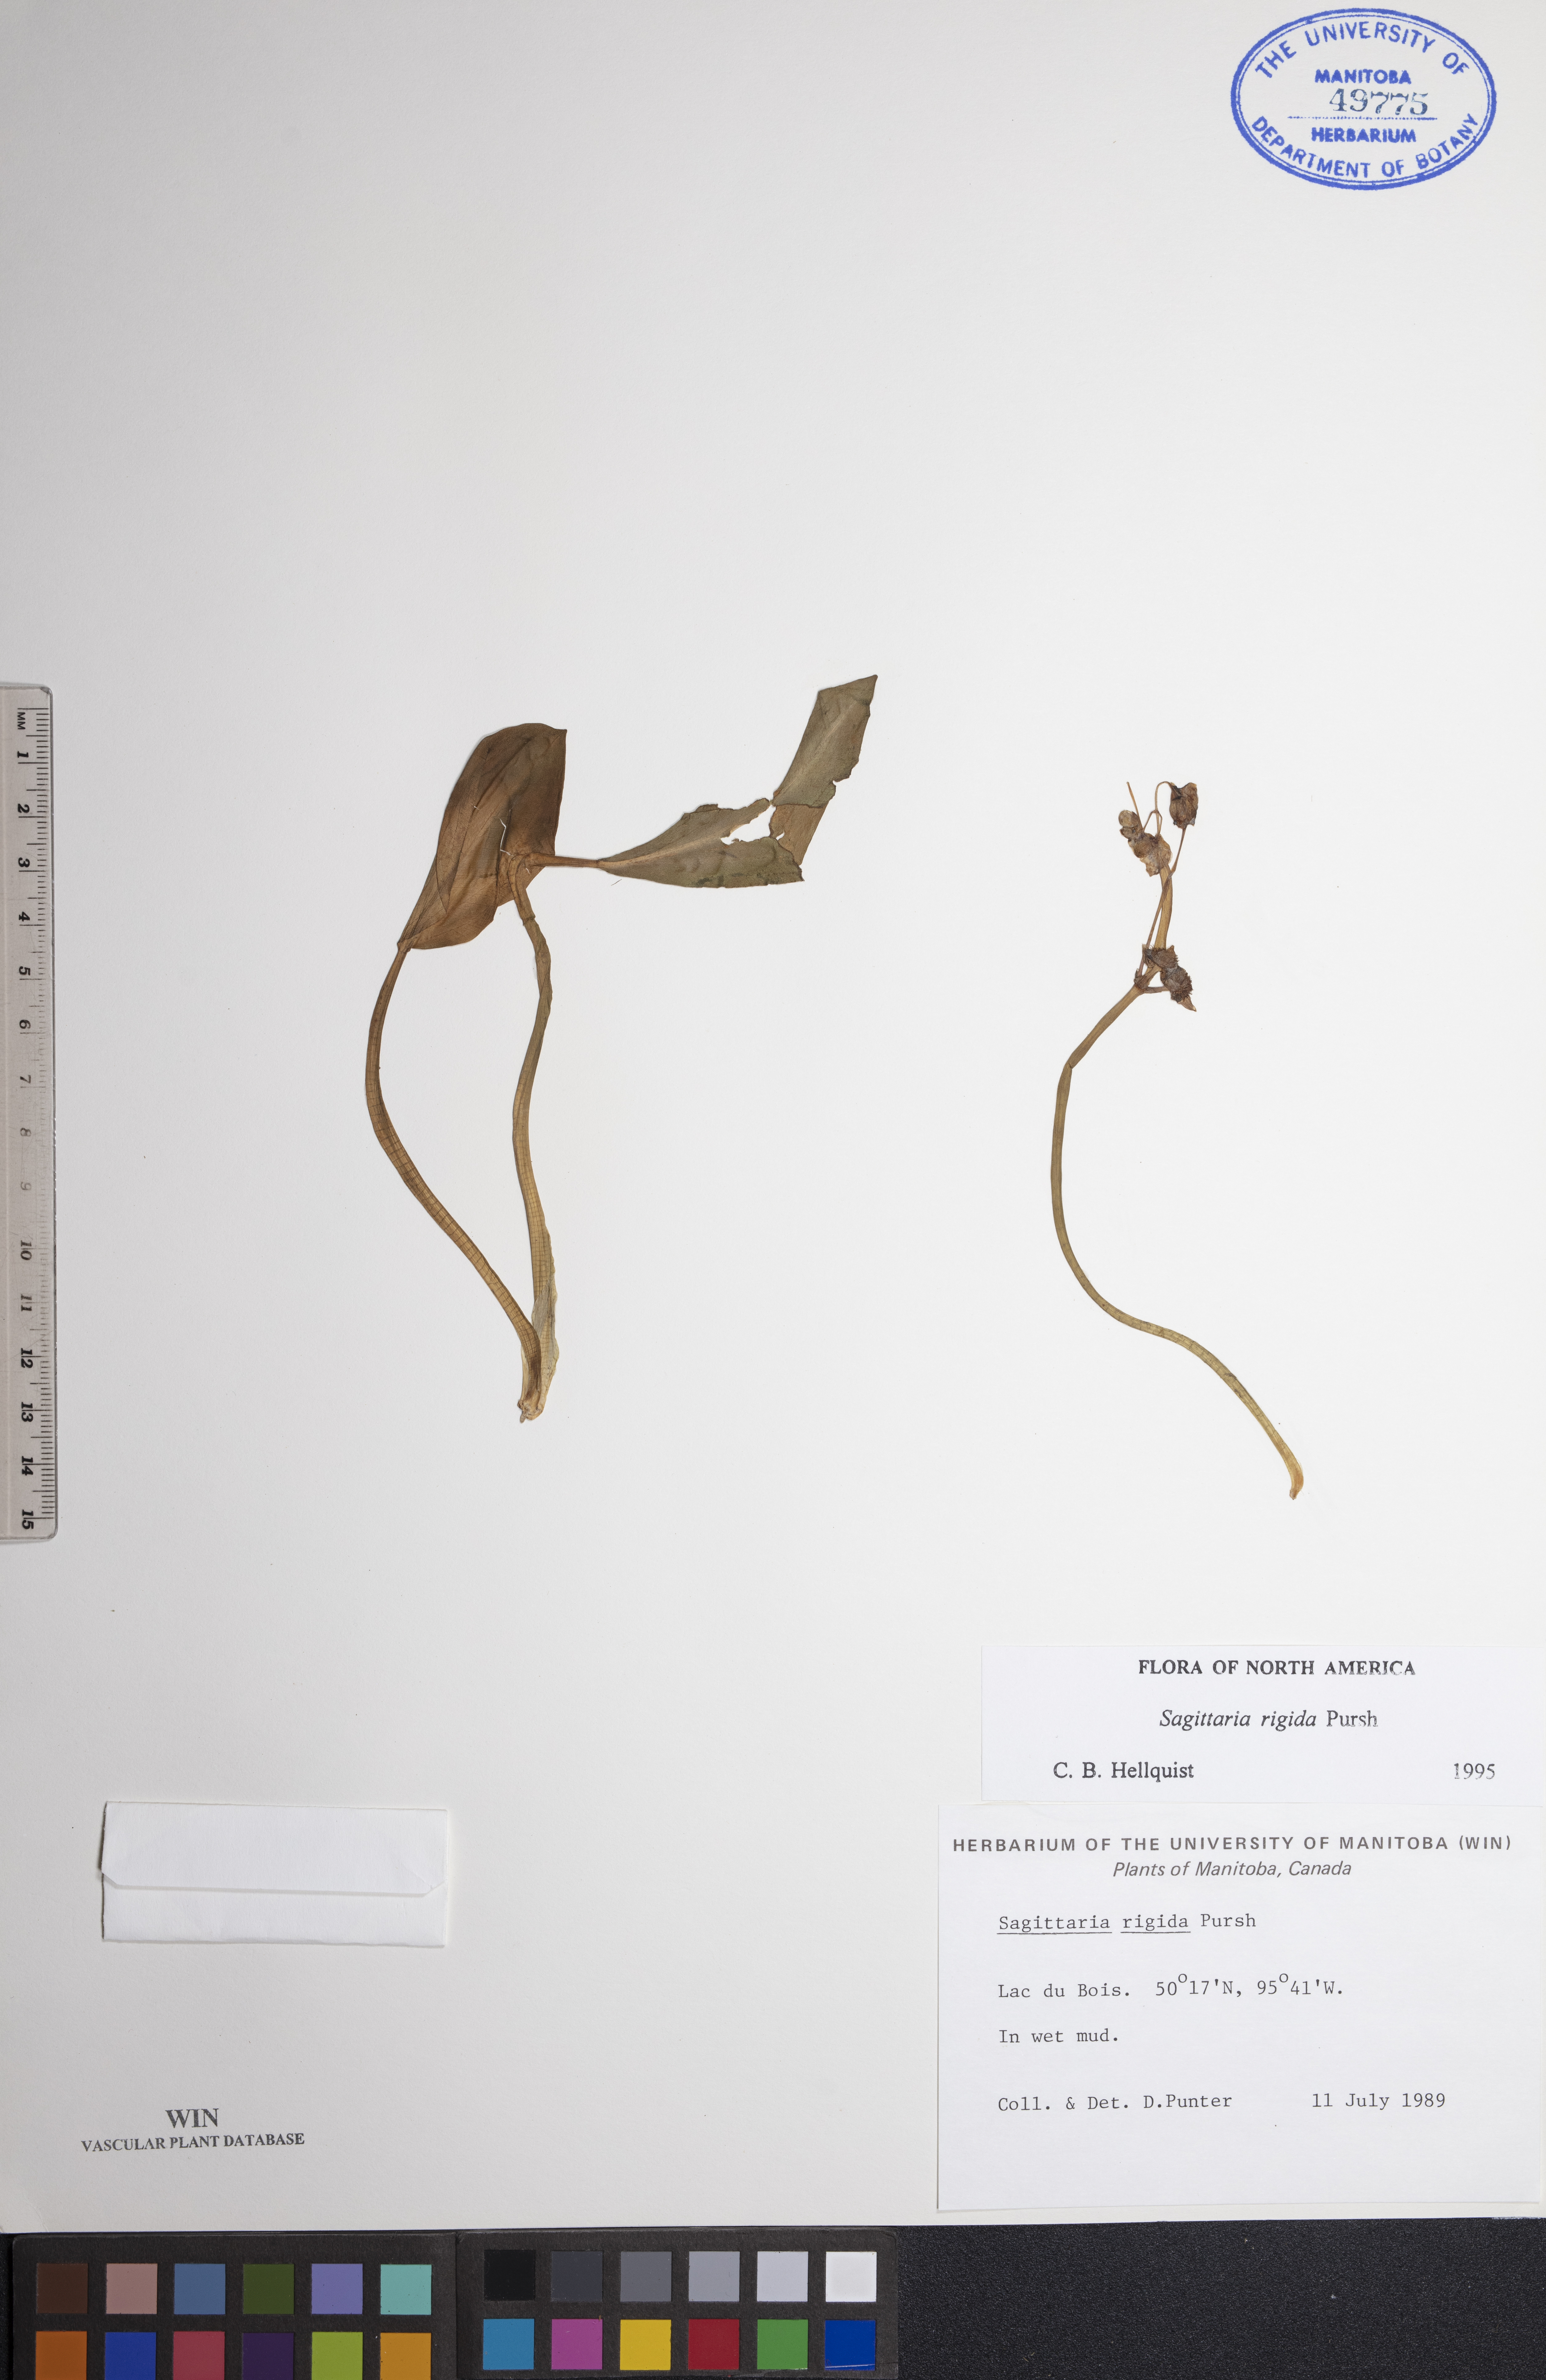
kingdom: Plantae
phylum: Tracheophyta
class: Liliopsida
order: Alismatales
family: Alismataceae
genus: Sagittaria
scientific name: Sagittaria rigida
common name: Canadian arrowhead
